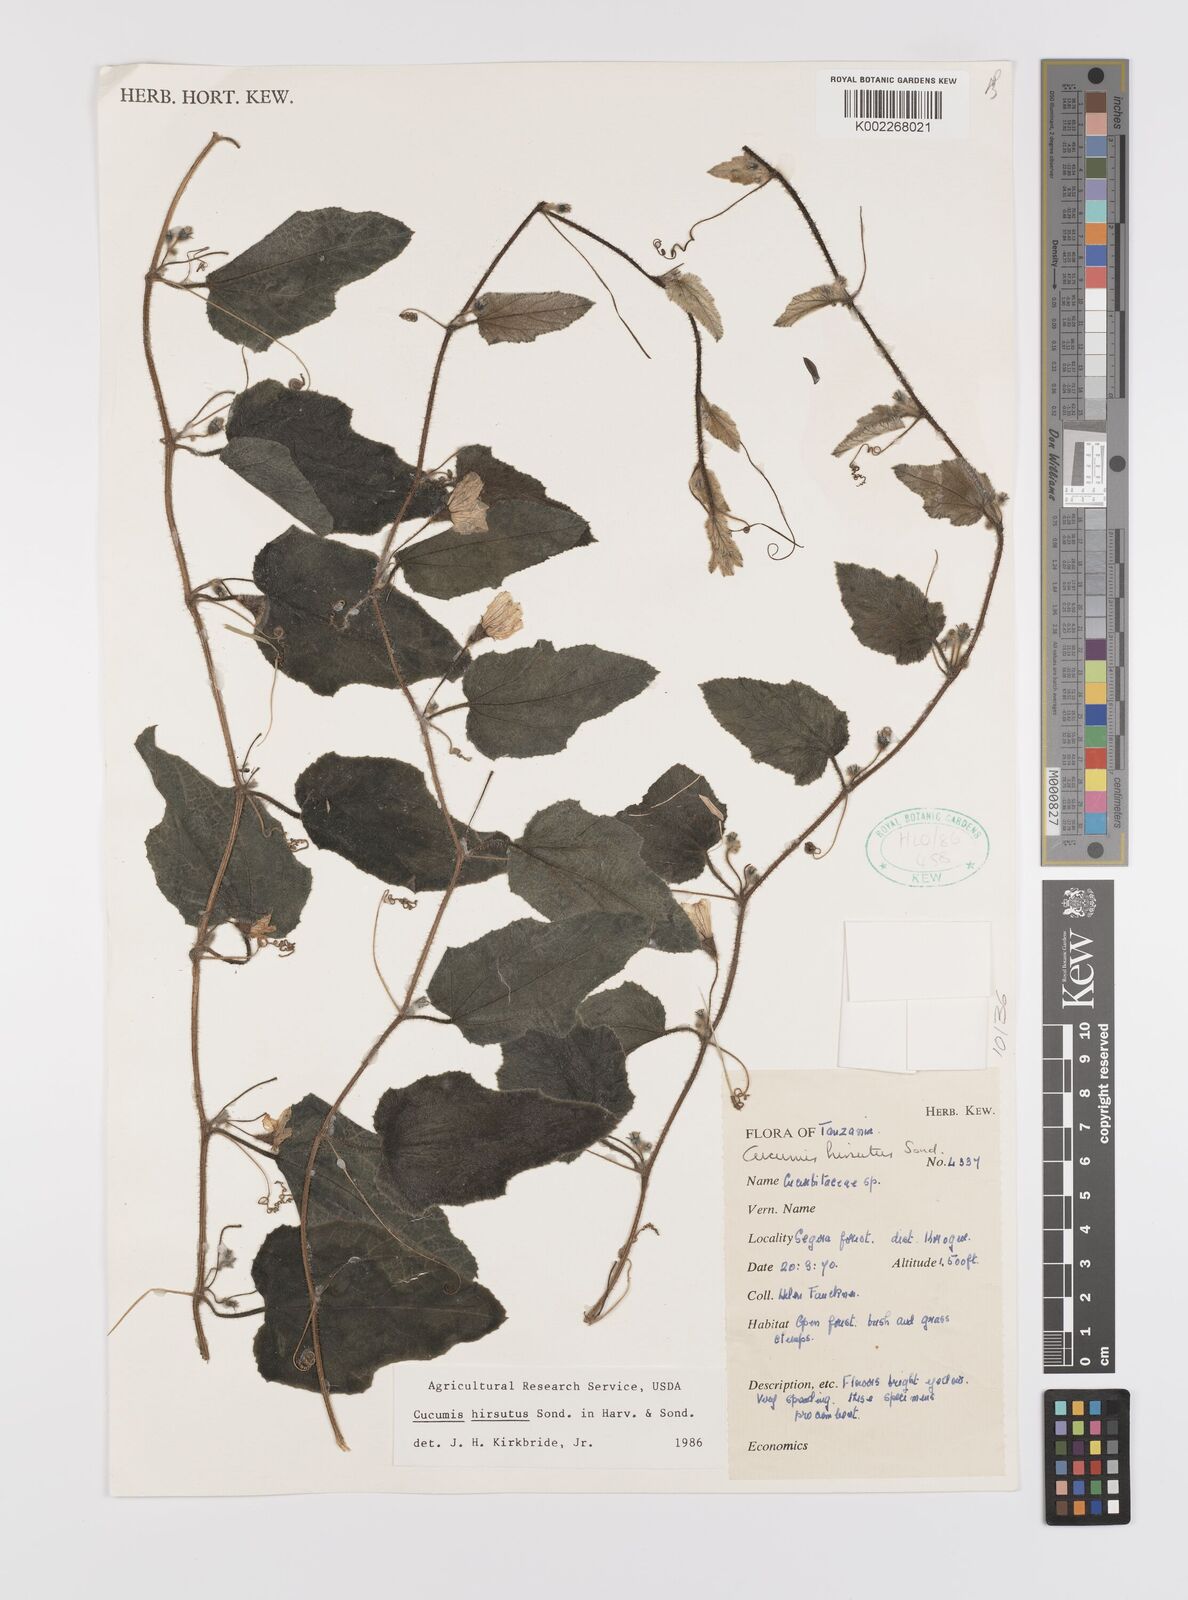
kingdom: Plantae
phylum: Tracheophyta
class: Magnoliopsida
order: Cucurbitales
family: Cucurbitaceae
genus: Cucumis
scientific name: Cucumis hirsutus
